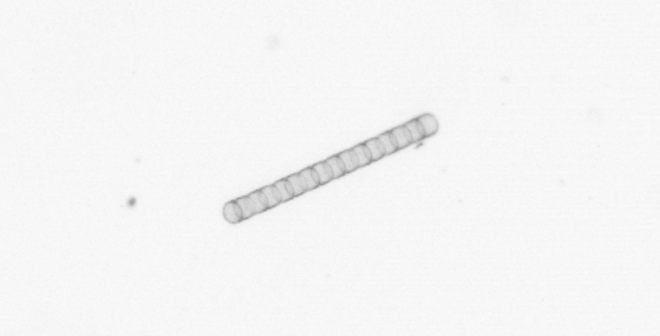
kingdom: Chromista
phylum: Ochrophyta
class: Bacillariophyceae
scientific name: Bacillariophyceae
